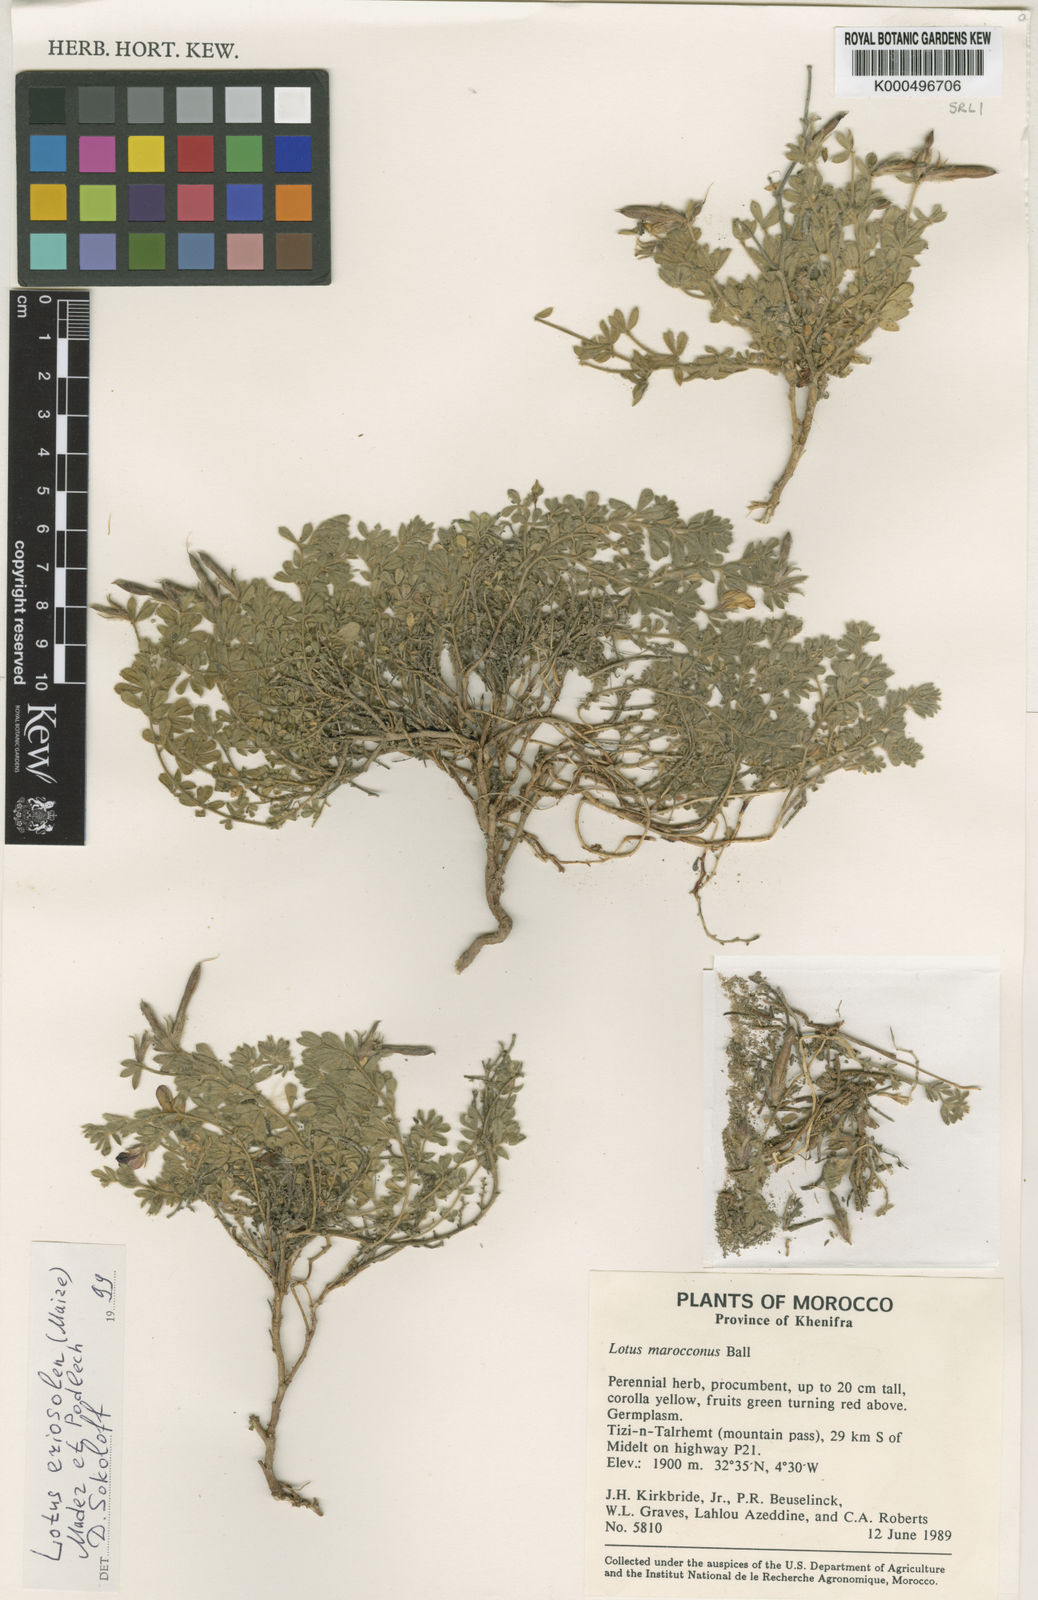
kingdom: Plantae
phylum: Tracheophyta
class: Magnoliopsida
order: Fabales
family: Fabaceae
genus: Lotus
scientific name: Lotus villicarpus
